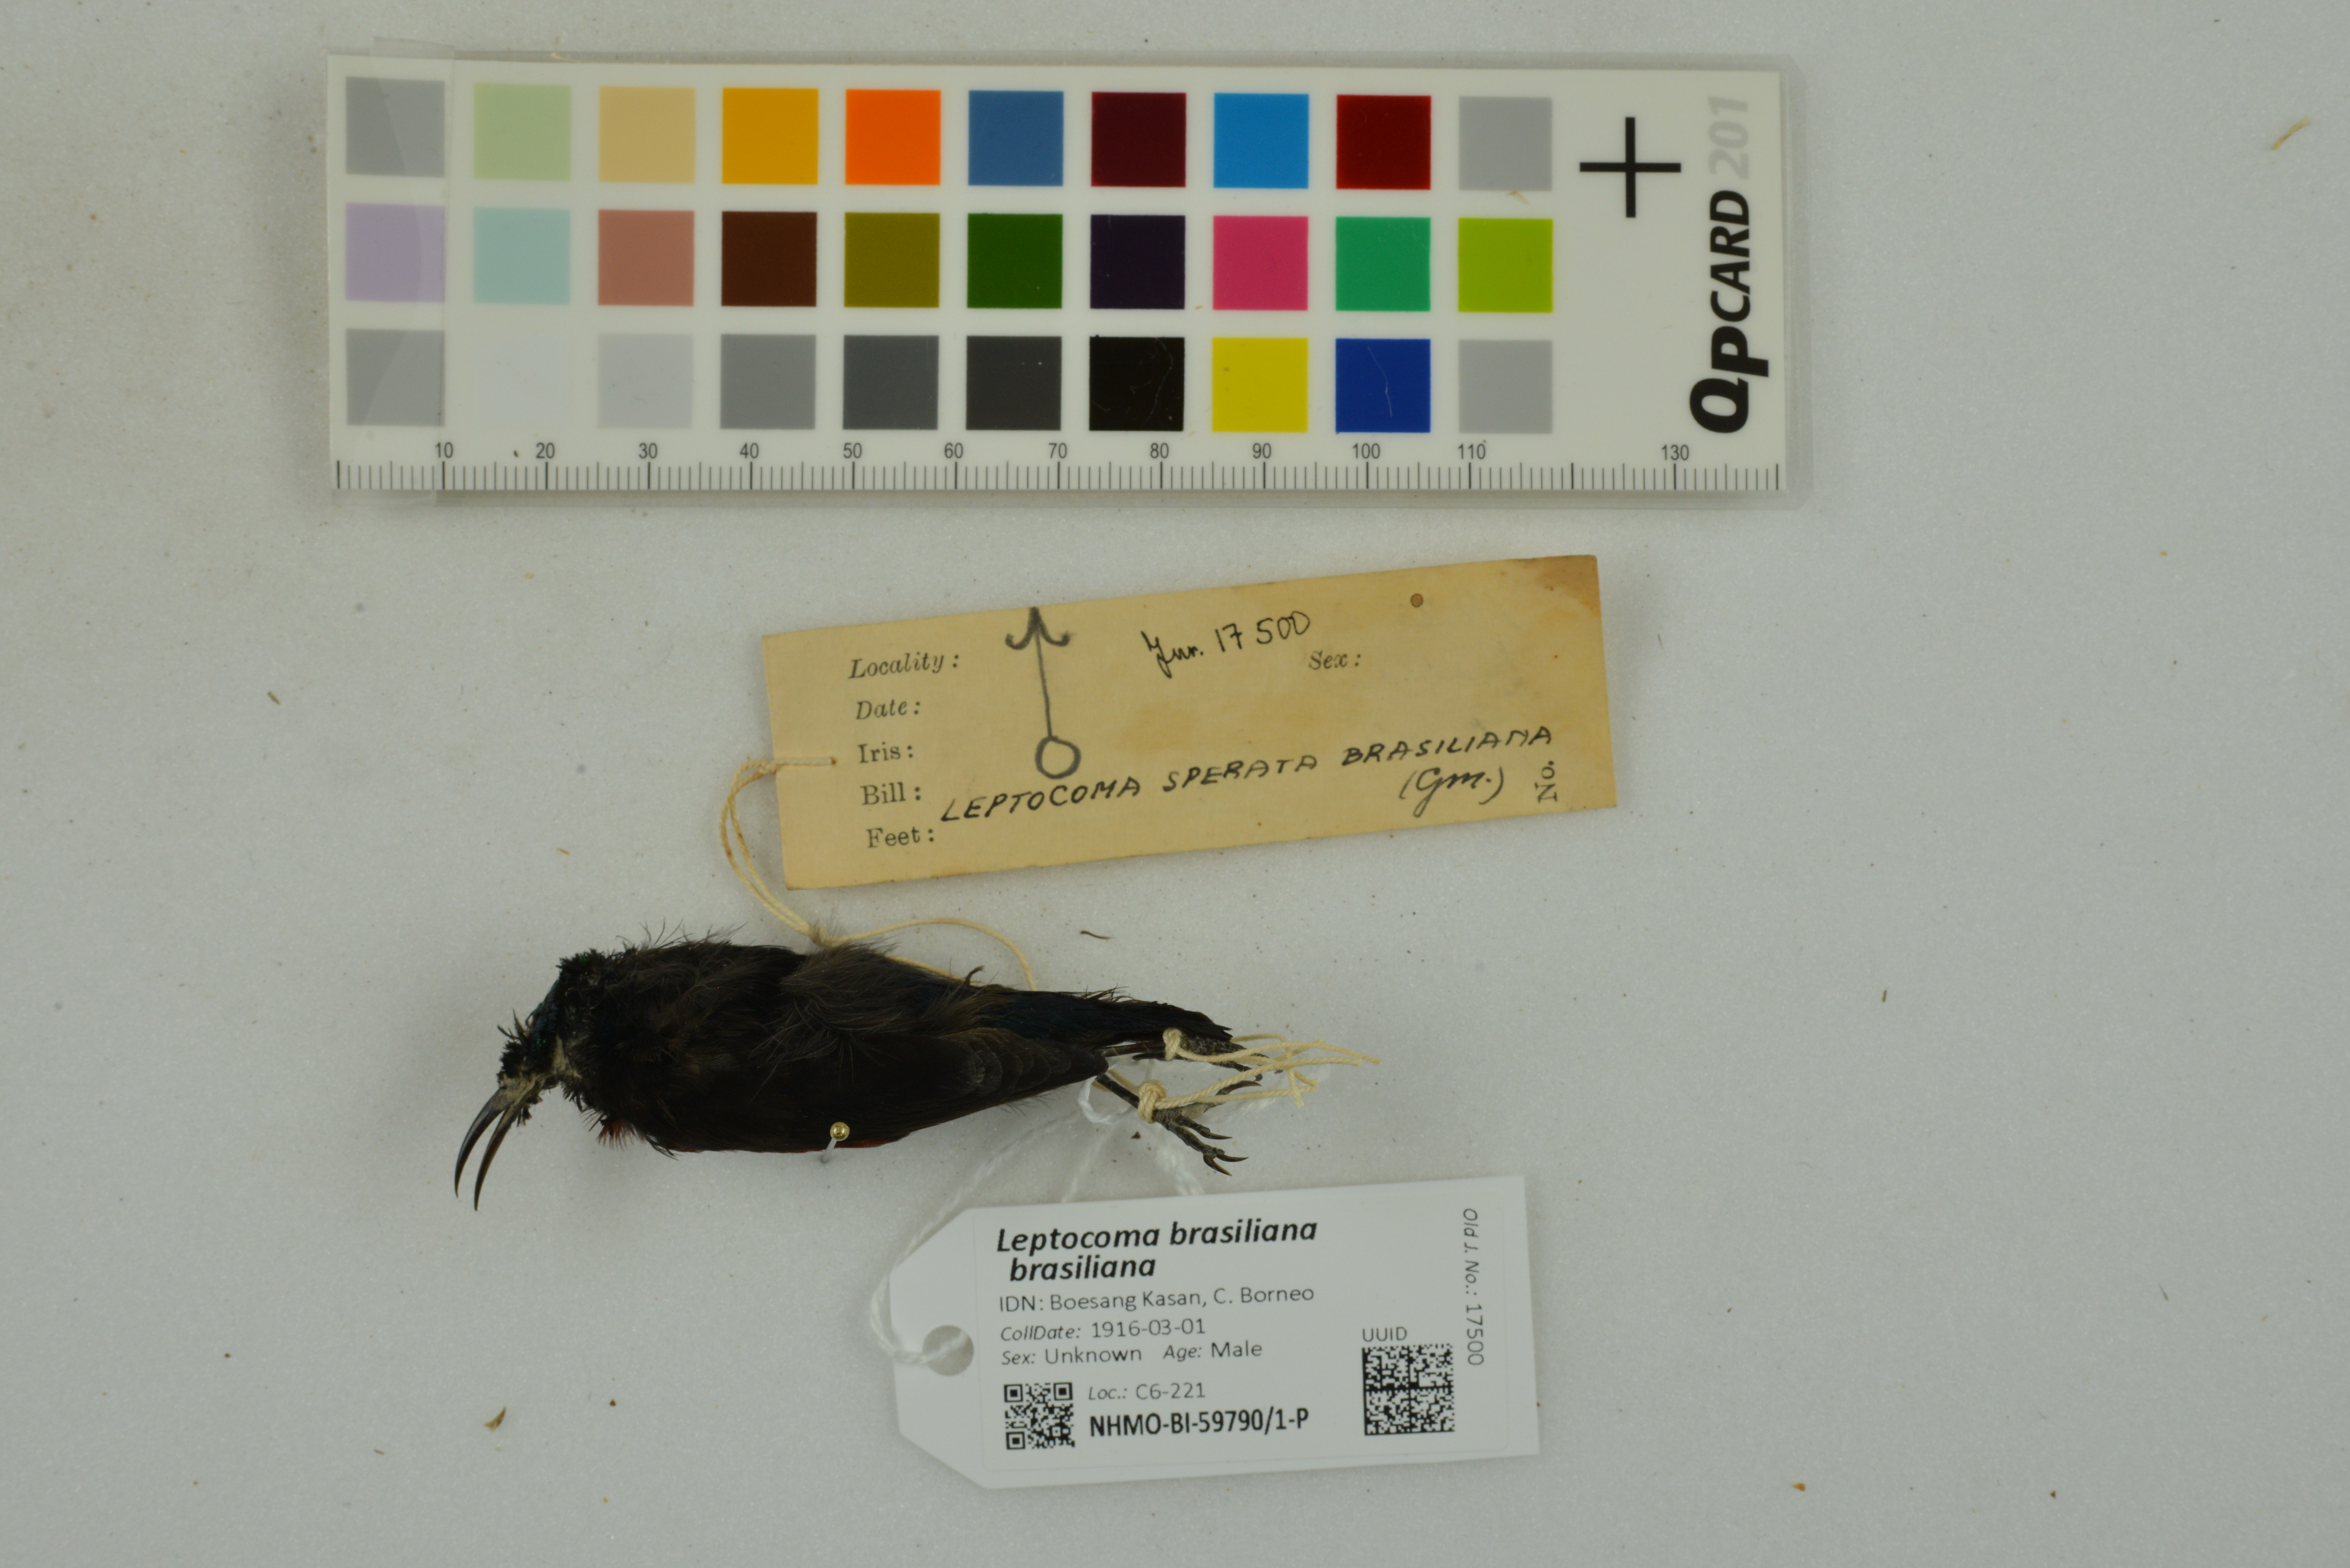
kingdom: Animalia
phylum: Chordata
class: Aves
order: Passeriformes
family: Nectariniidae
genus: Leptocoma
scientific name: Leptocoma brasiliana
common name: Van hasselt's sunbird
